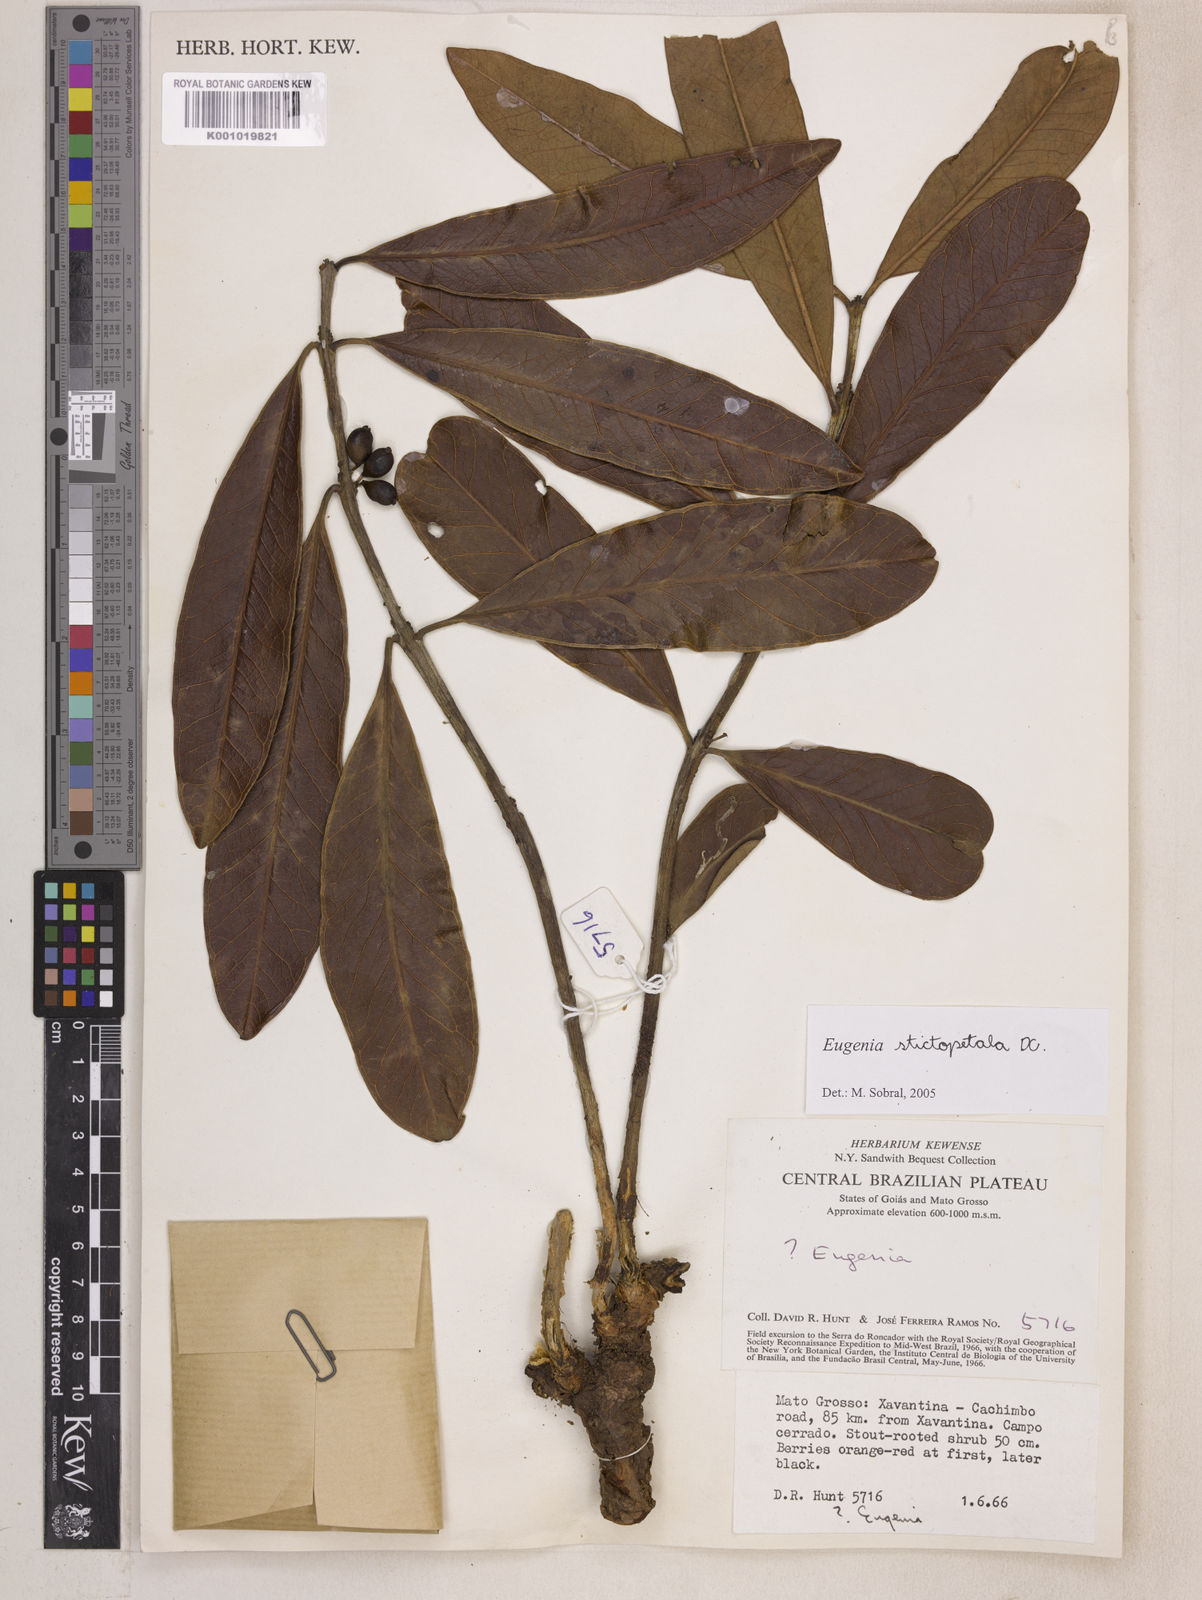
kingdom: Plantae
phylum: Tracheophyta
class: Magnoliopsida
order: Myrtales
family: Myrtaceae
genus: Eugenia
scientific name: Eugenia stictopetala
